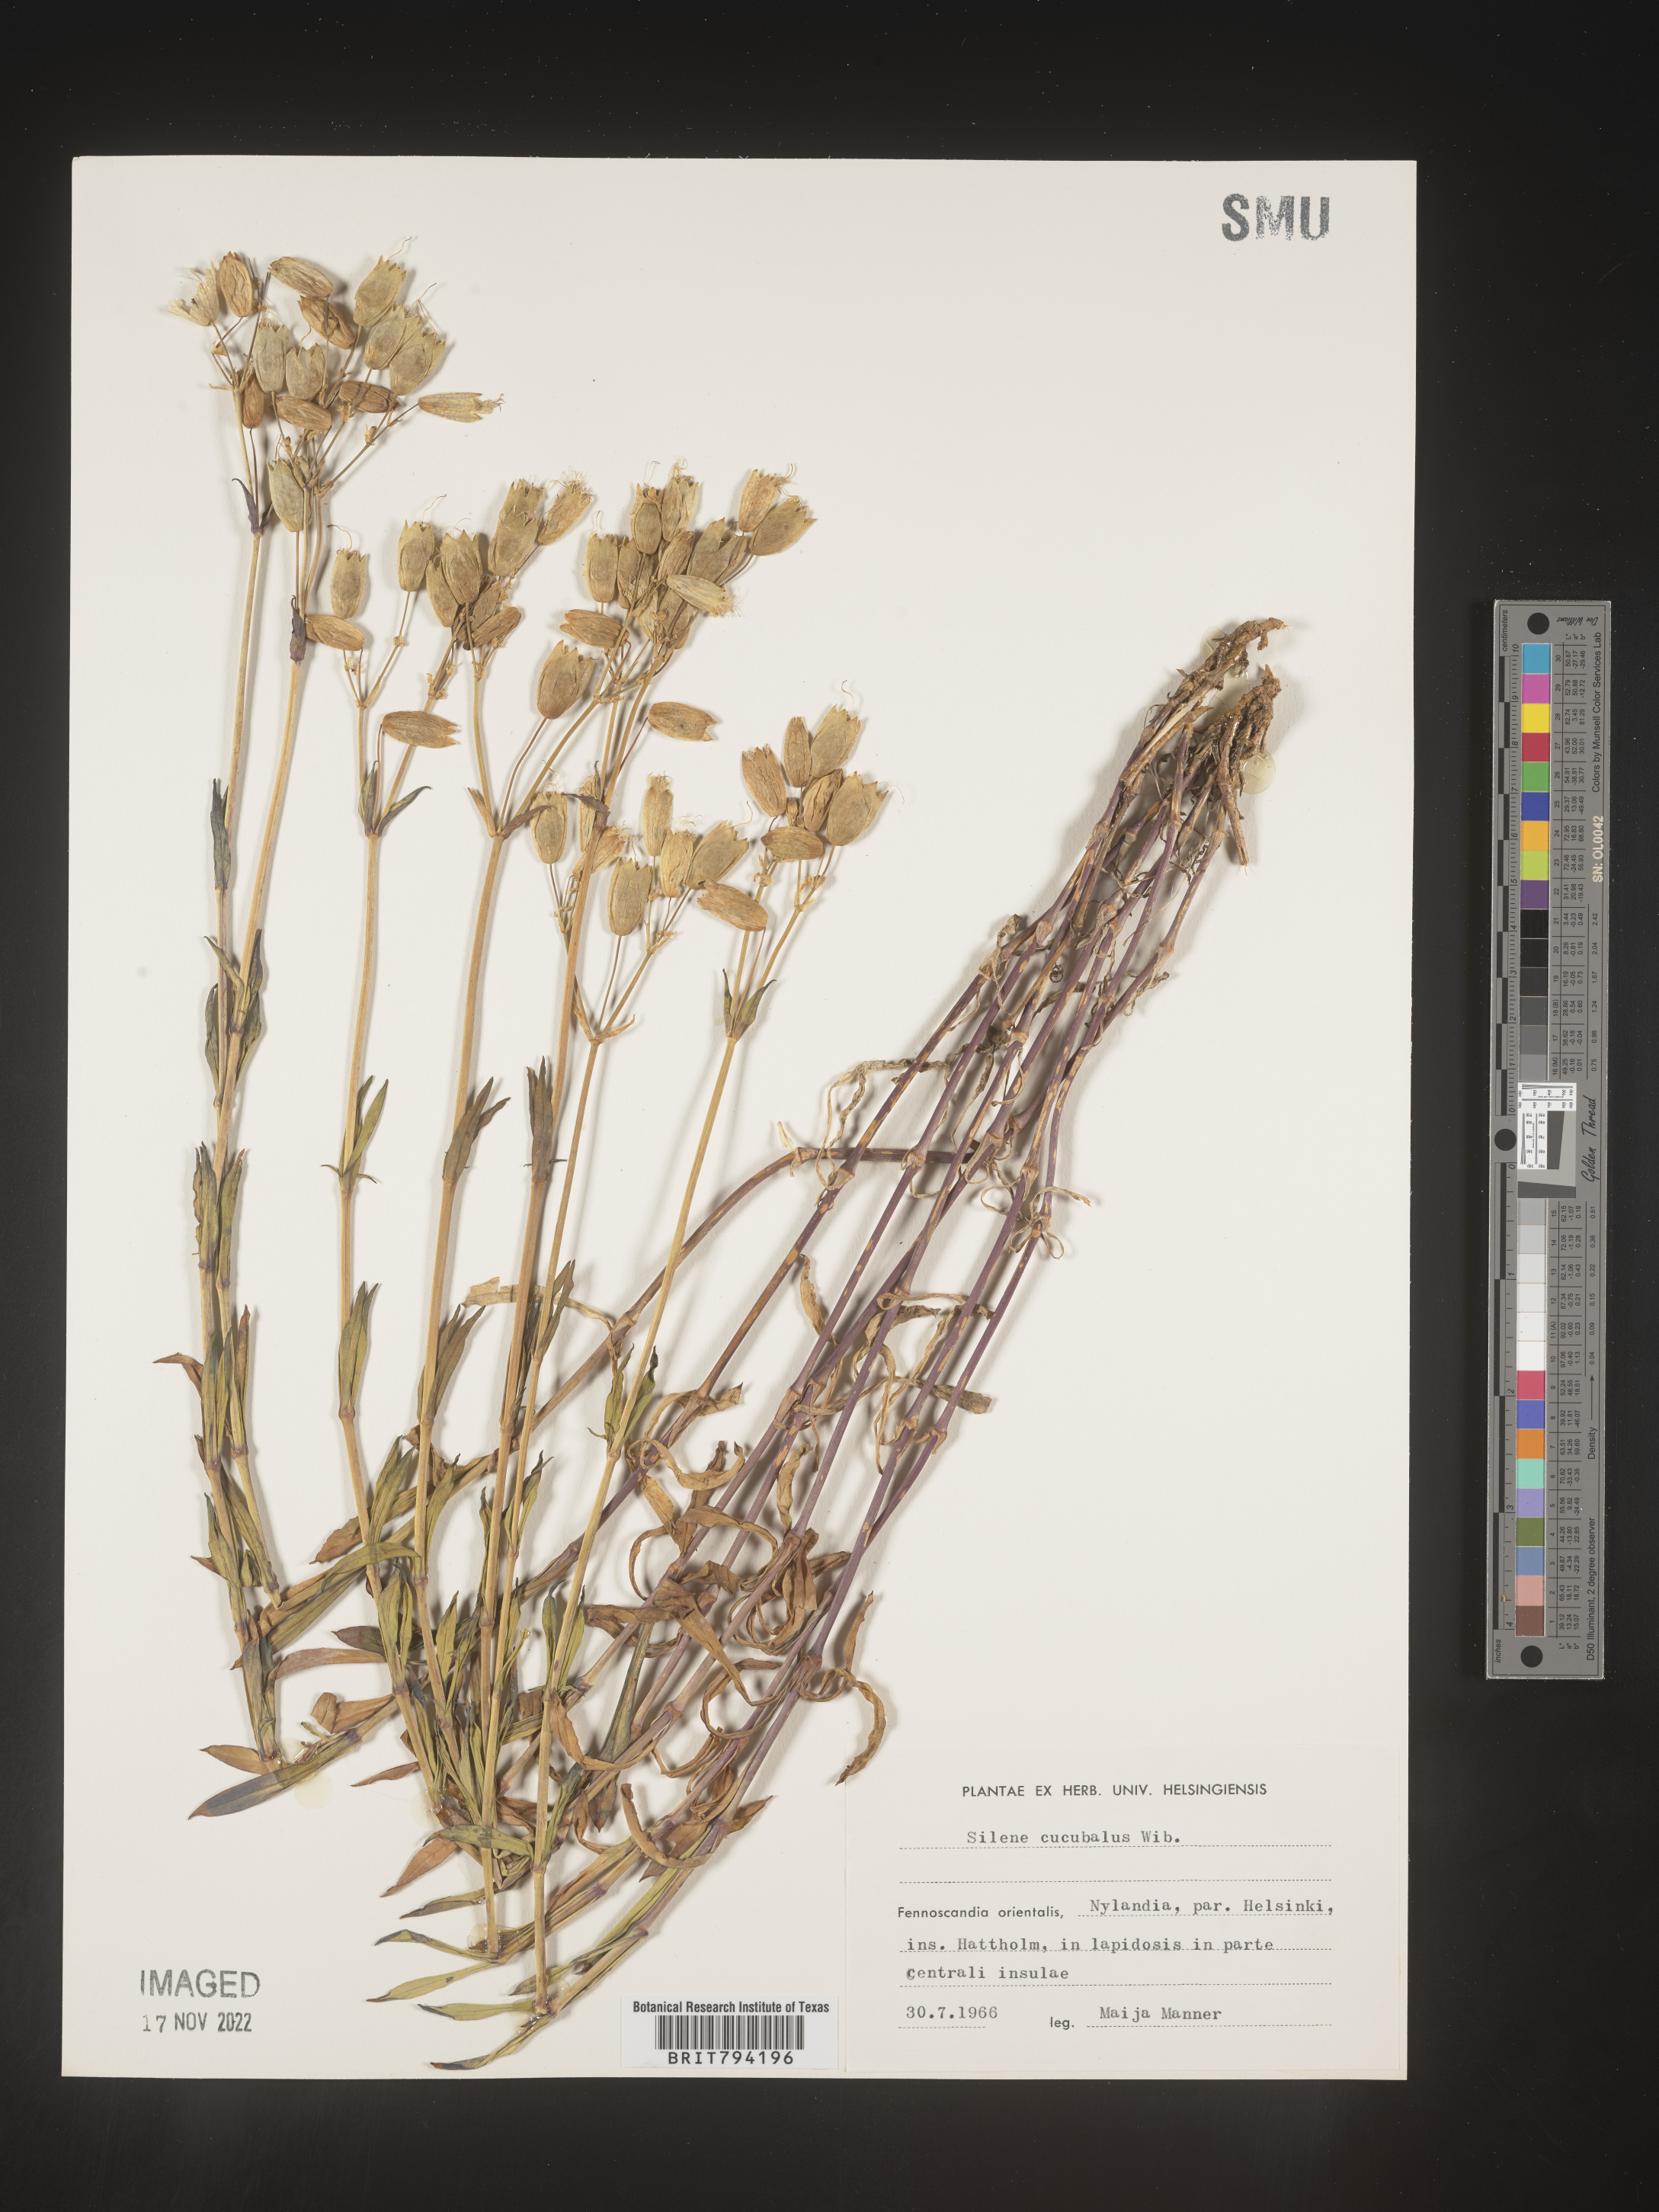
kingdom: Plantae
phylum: Tracheophyta
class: Magnoliopsida
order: Caryophyllales
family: Caryophyllaceae
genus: Silene
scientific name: Silene vulgaris
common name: Bladder campion
